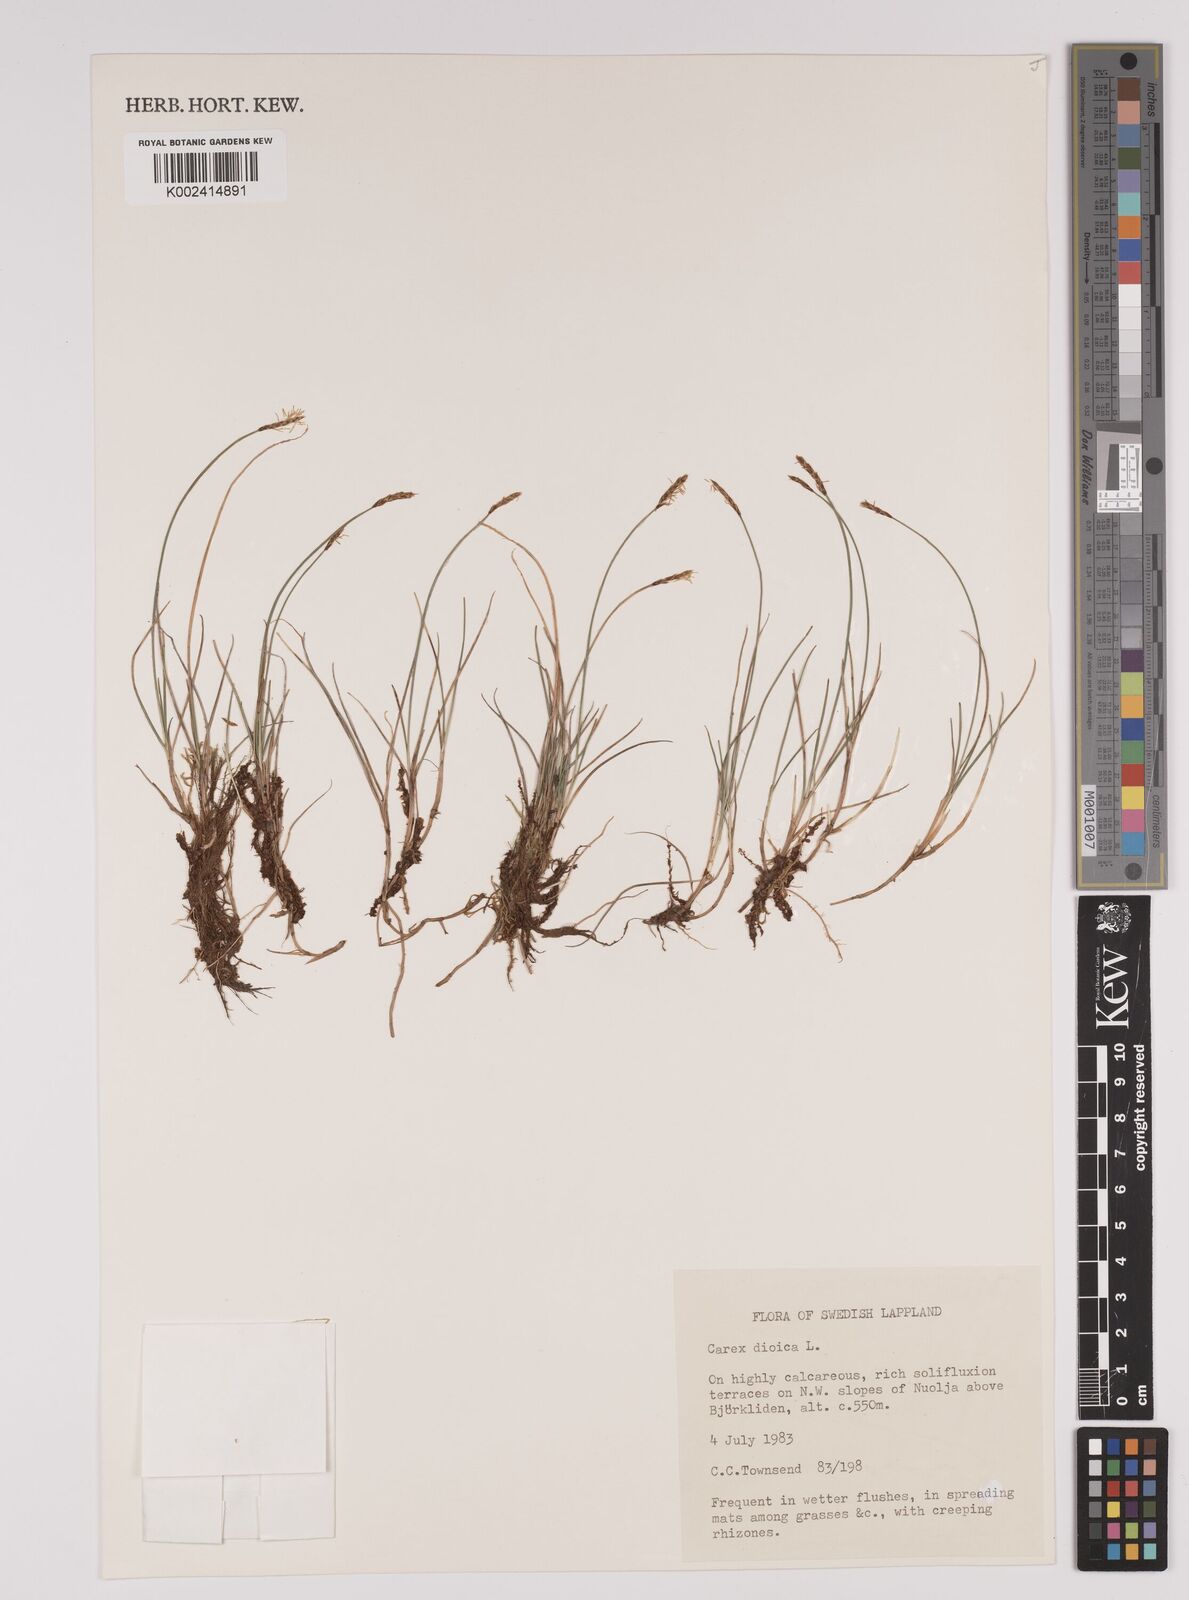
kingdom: Plantae
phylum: Tracheophyta
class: Liliopsida
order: Poales
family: Cyperaceae
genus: Carex
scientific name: Carex dioica
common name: Dioecious sedge
